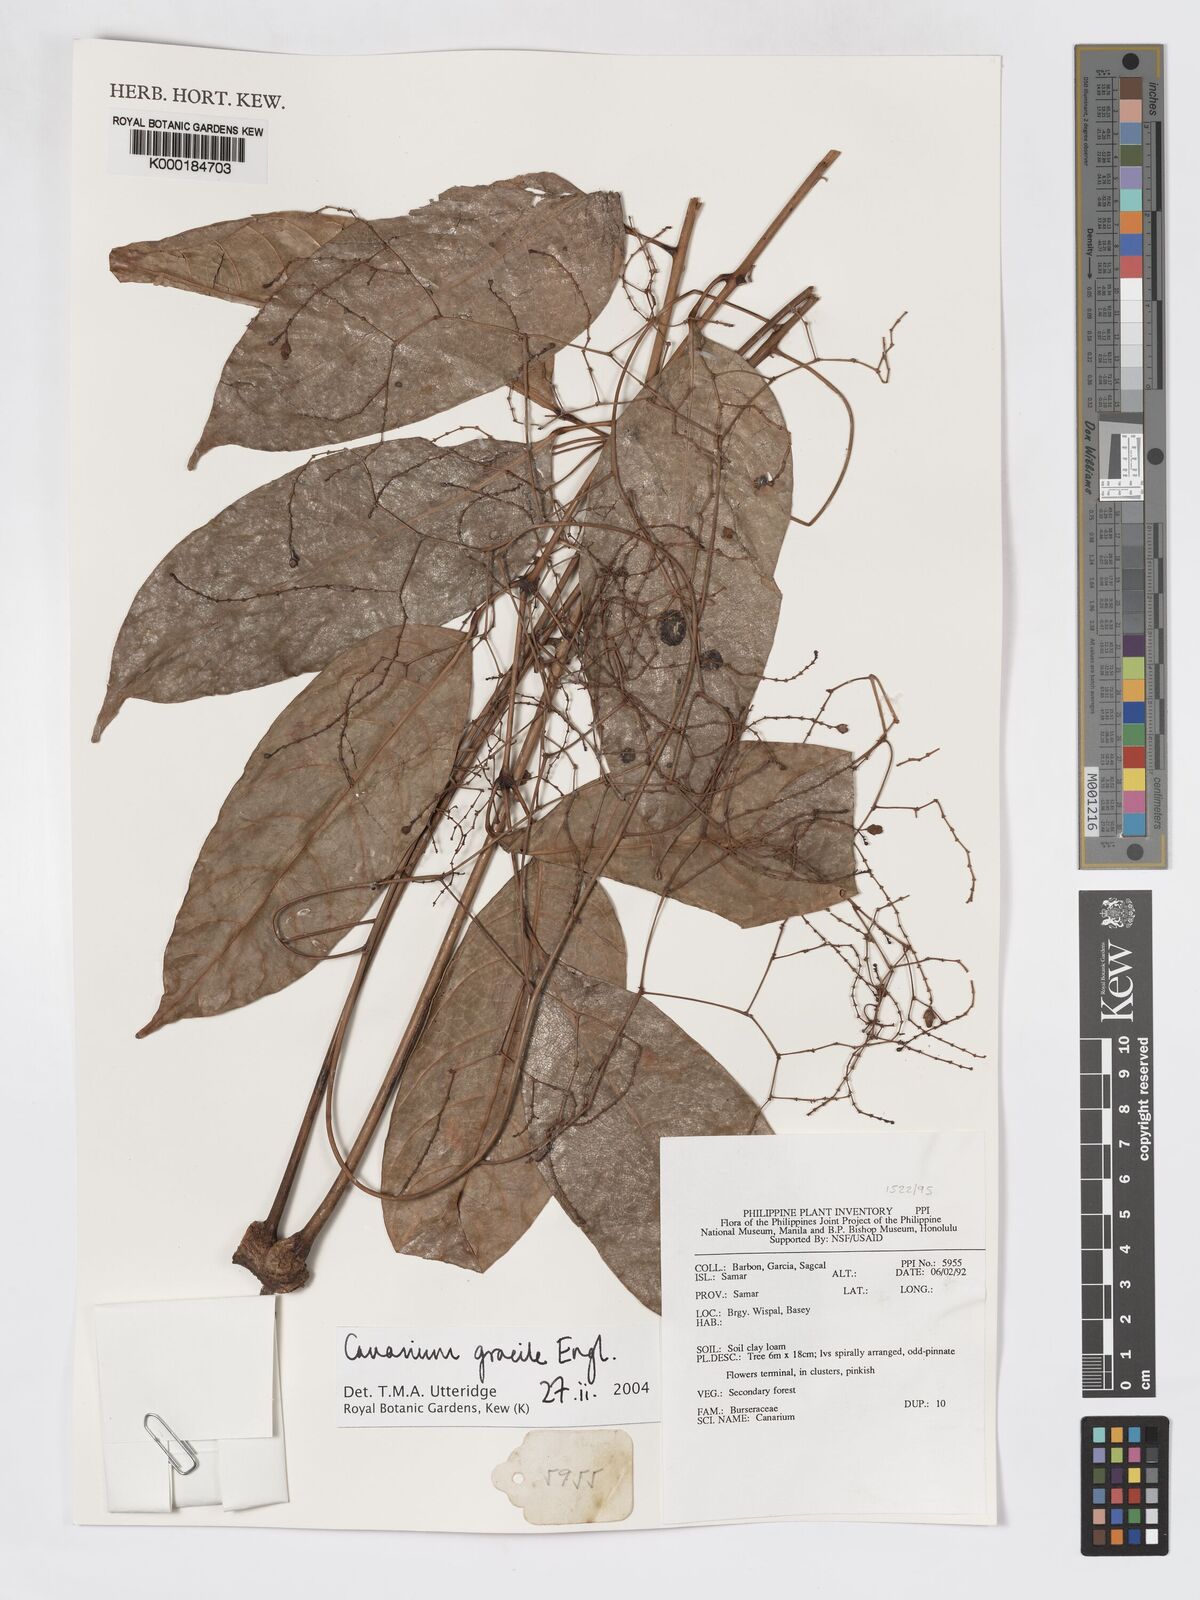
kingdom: Plantae
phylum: Tracheophyta
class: Magnoliopsida
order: Sapindales
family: Burseraceae
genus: Canarium
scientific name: Canarium gracile
